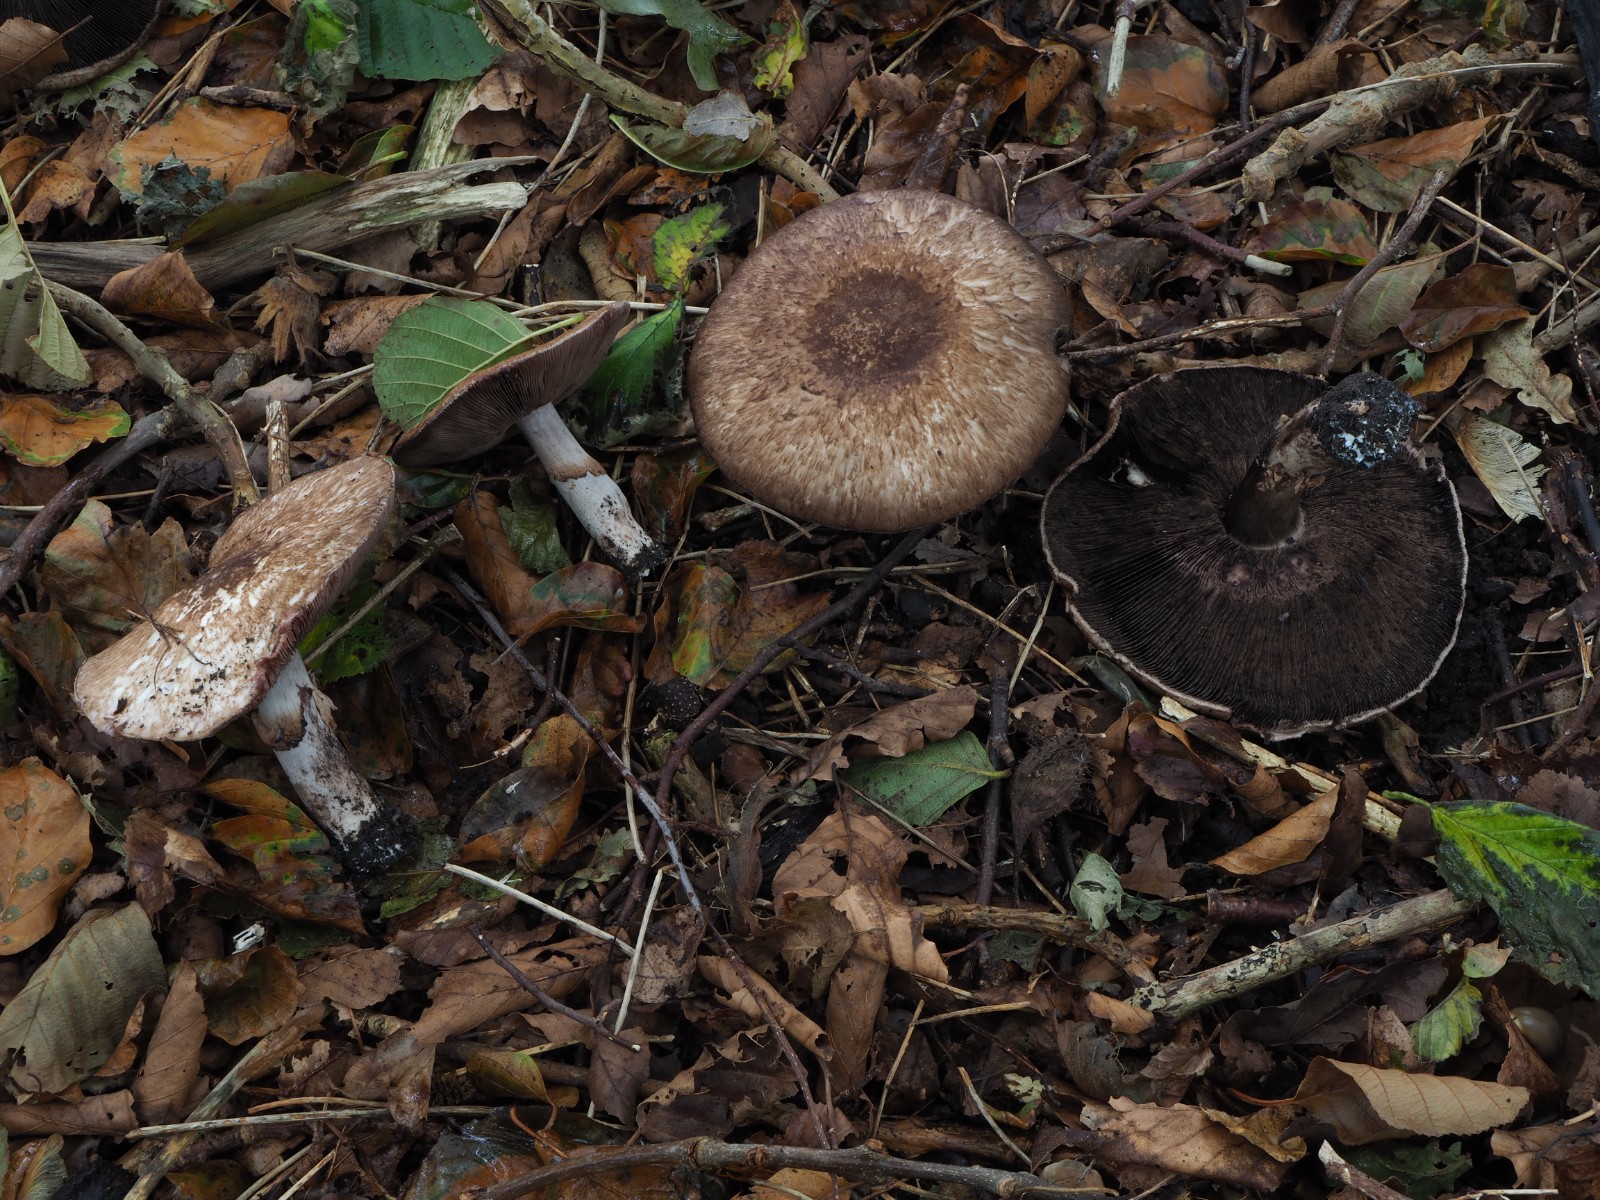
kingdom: Fungi
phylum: Basidiomycota
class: Agaricomycetes
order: Agaricales
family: Agaricaceae
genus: Agaricus
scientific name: Agaricus
